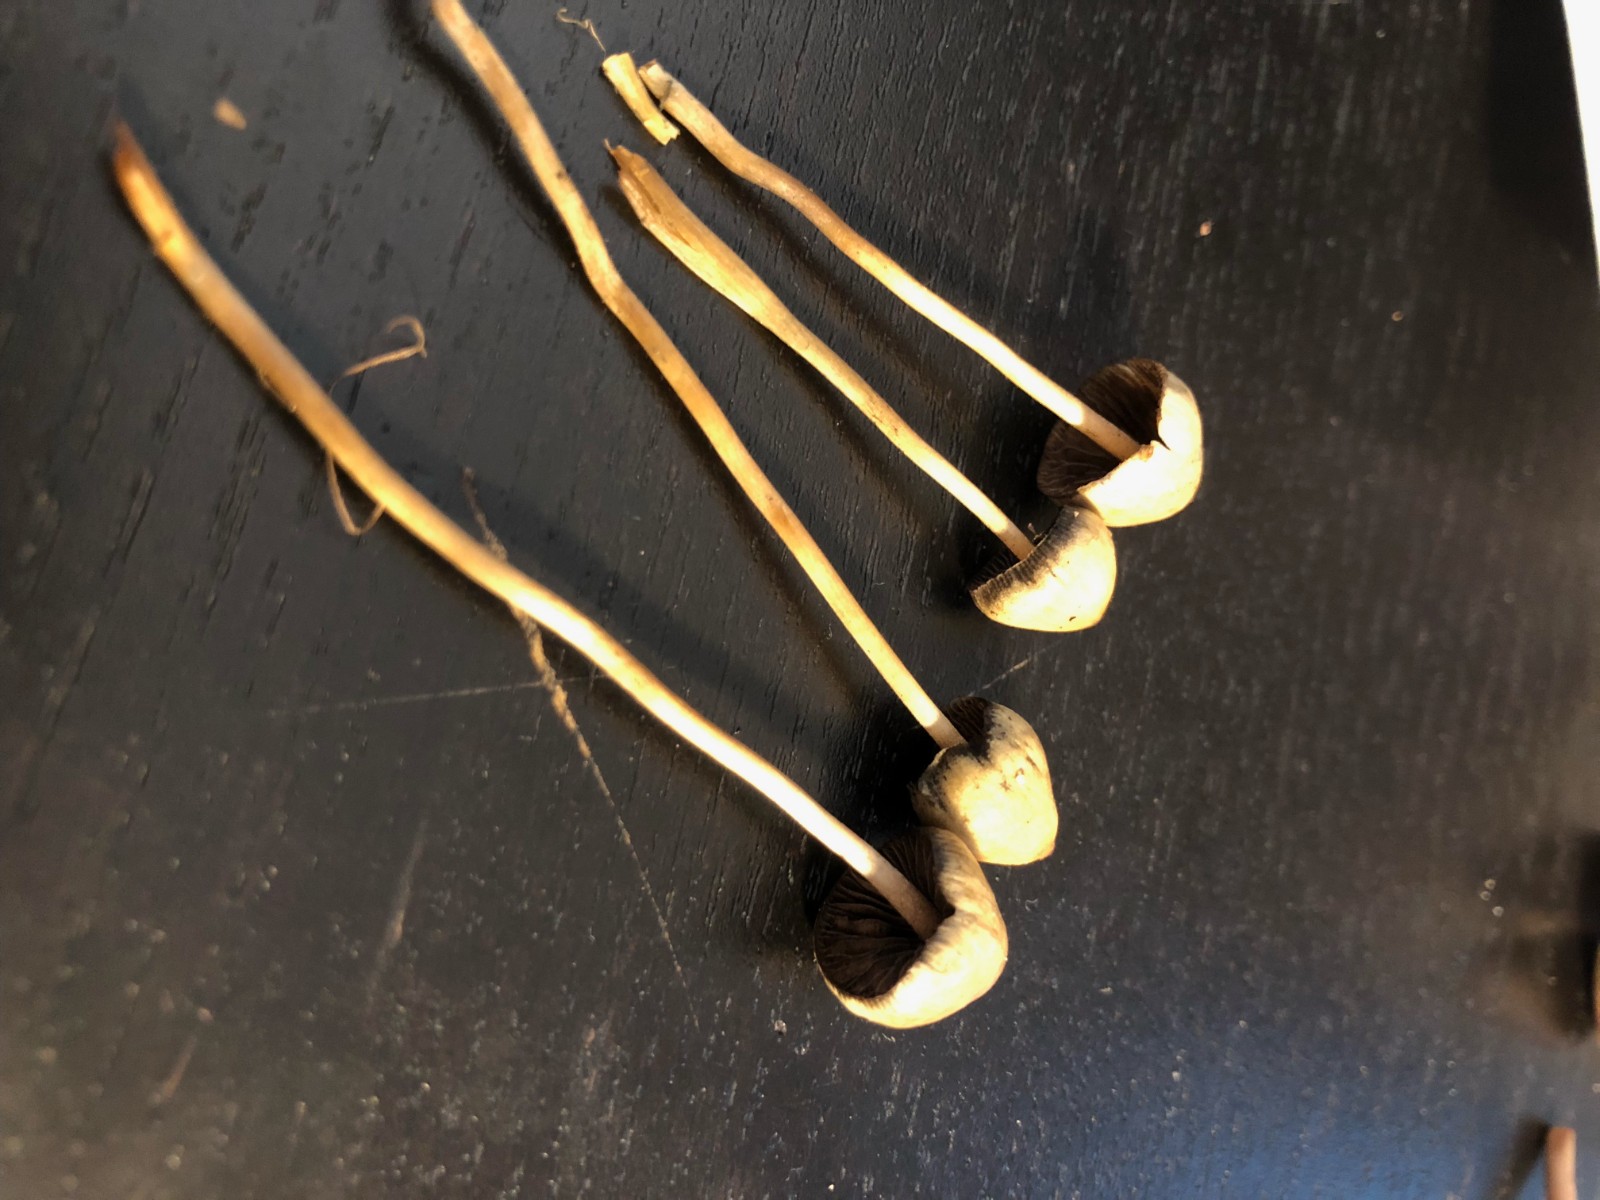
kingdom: Fungi
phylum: Basidiomycota
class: Agaricomycetes
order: Agaricales
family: Hymenogastraceae
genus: Psilocybe
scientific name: Psilocybe semilanceata
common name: spids nøgenhat
